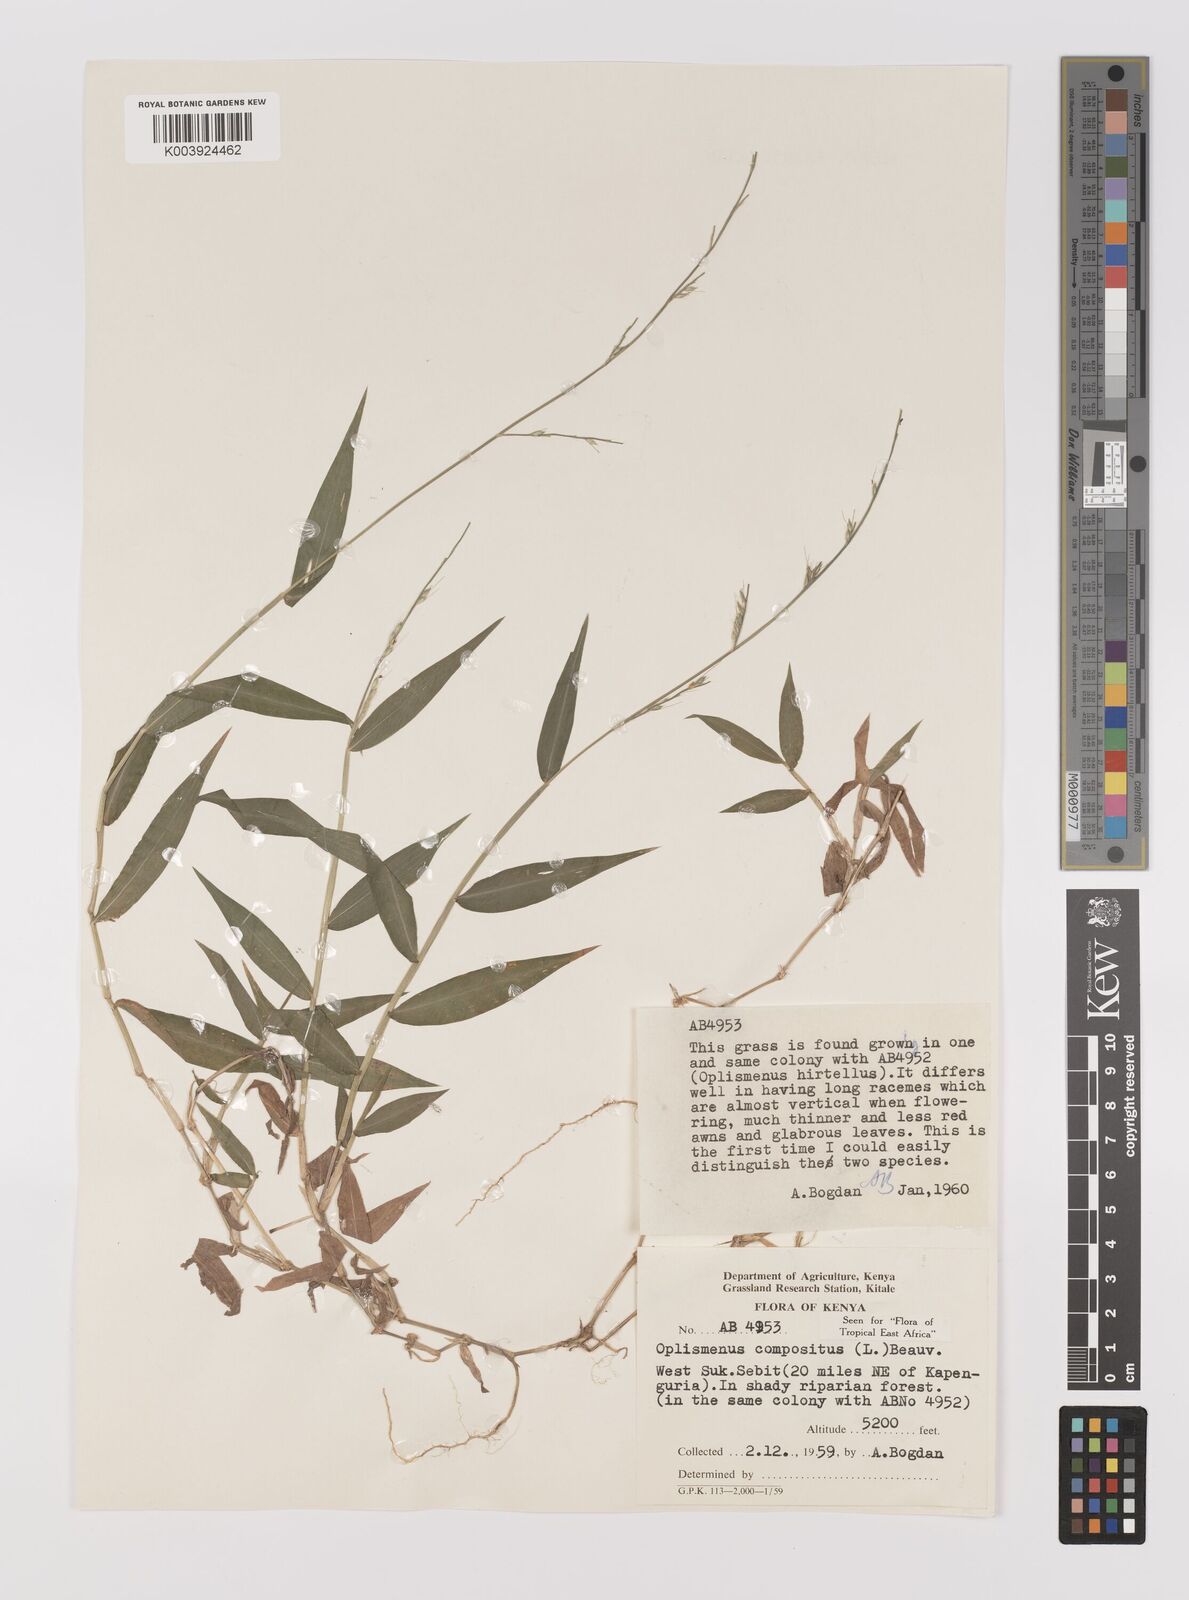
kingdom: Plantae
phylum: Tracheophyta
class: Liliopsida
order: Poales
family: Poaceae
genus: Oplismenus
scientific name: Oplismenus compositus
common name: Running mountain grass
